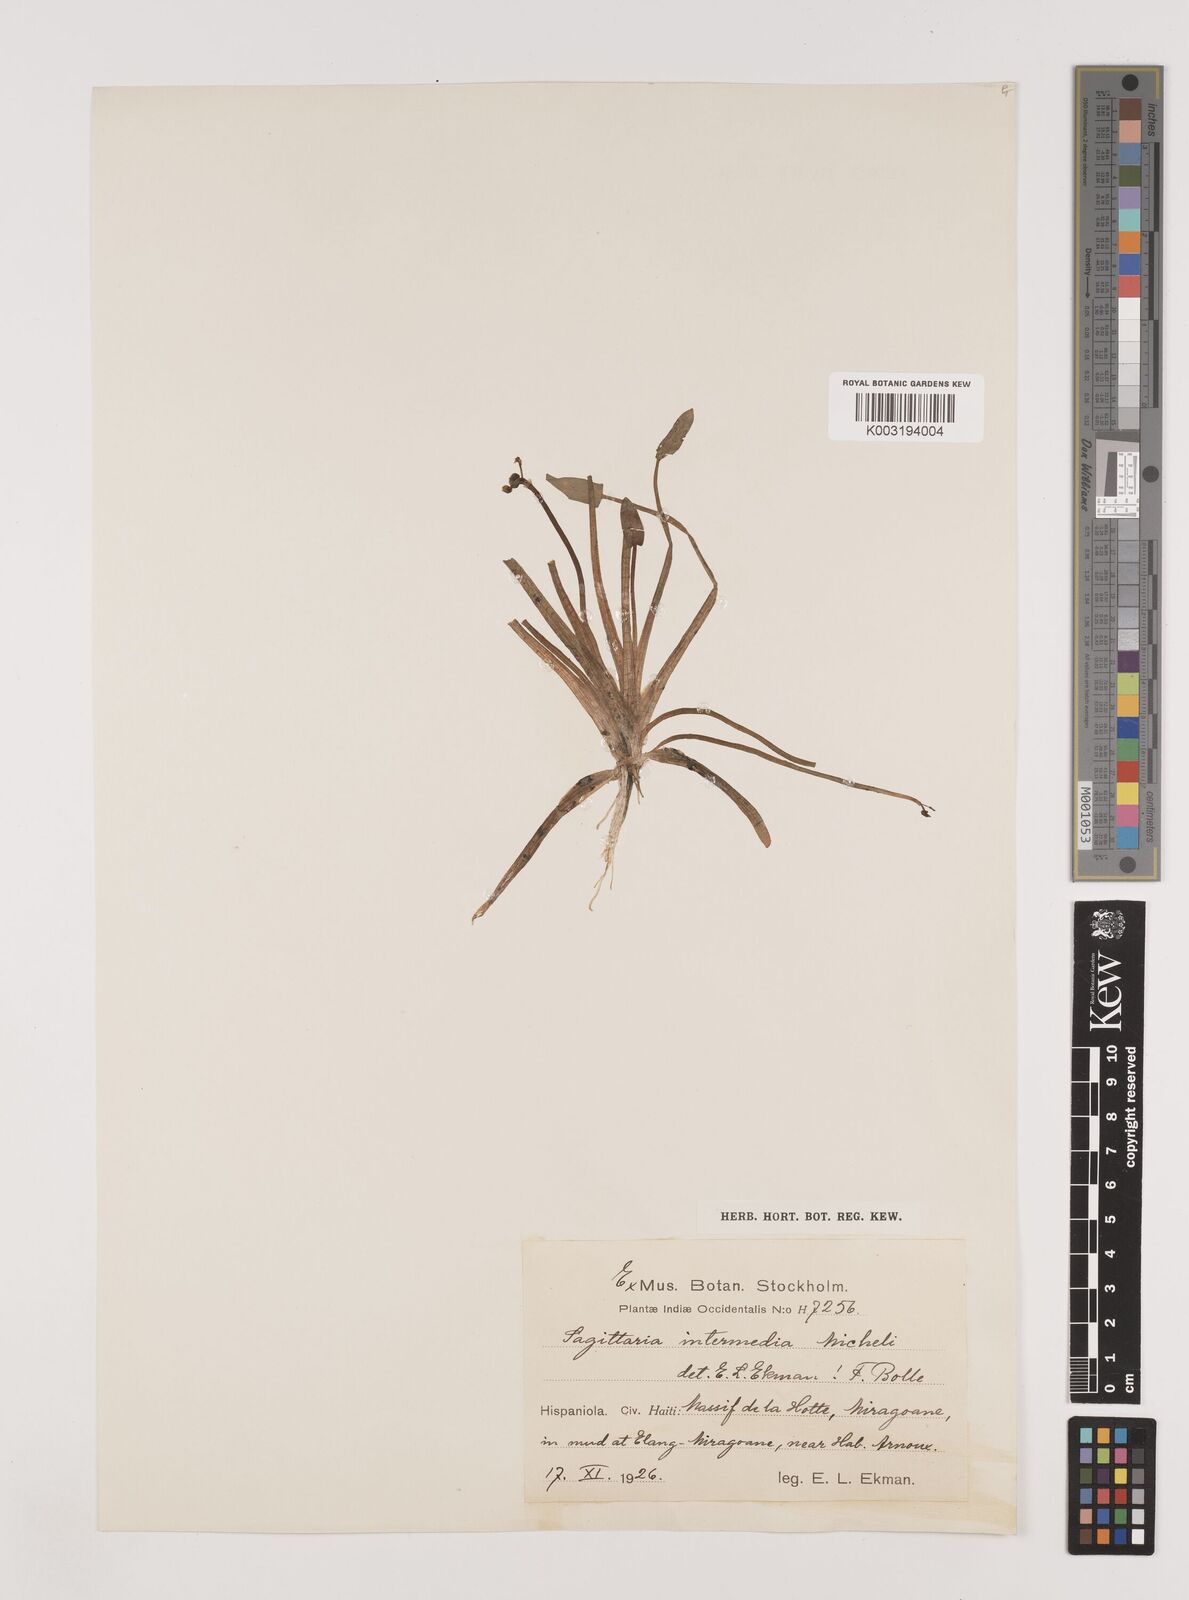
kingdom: Plantae
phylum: Tracheophyta
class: Liliopsida
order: Alismatales
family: Alismataceae
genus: Sagittaria
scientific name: Sagittaria intermedia
